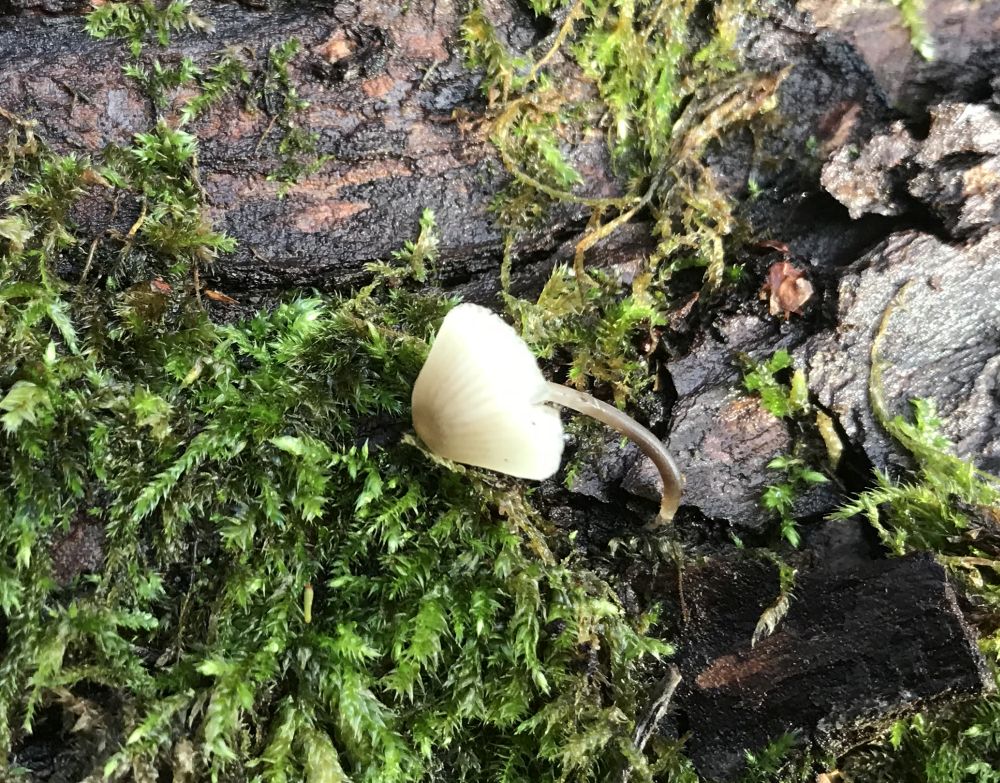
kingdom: Fungi
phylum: Basidiomycota
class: Agaricomycetes
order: Agaricales
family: Mycenaceae
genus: Mycena
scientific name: Mycena arcangeliana
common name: oliven-huesvamp
